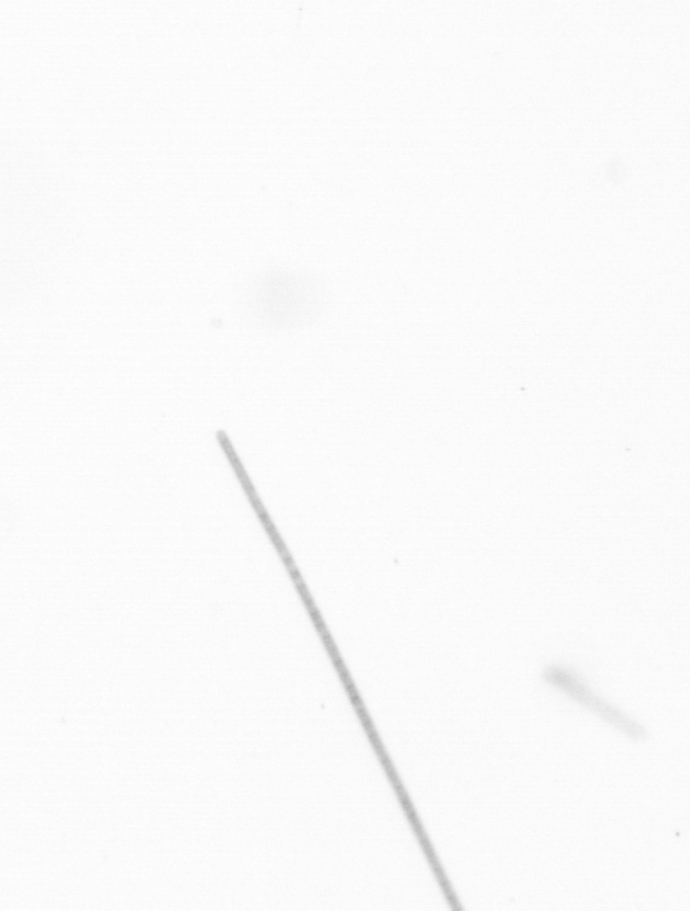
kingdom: Chromista
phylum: Ochrophyta
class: Bacillariophyceae
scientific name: Bacillariophyceae
